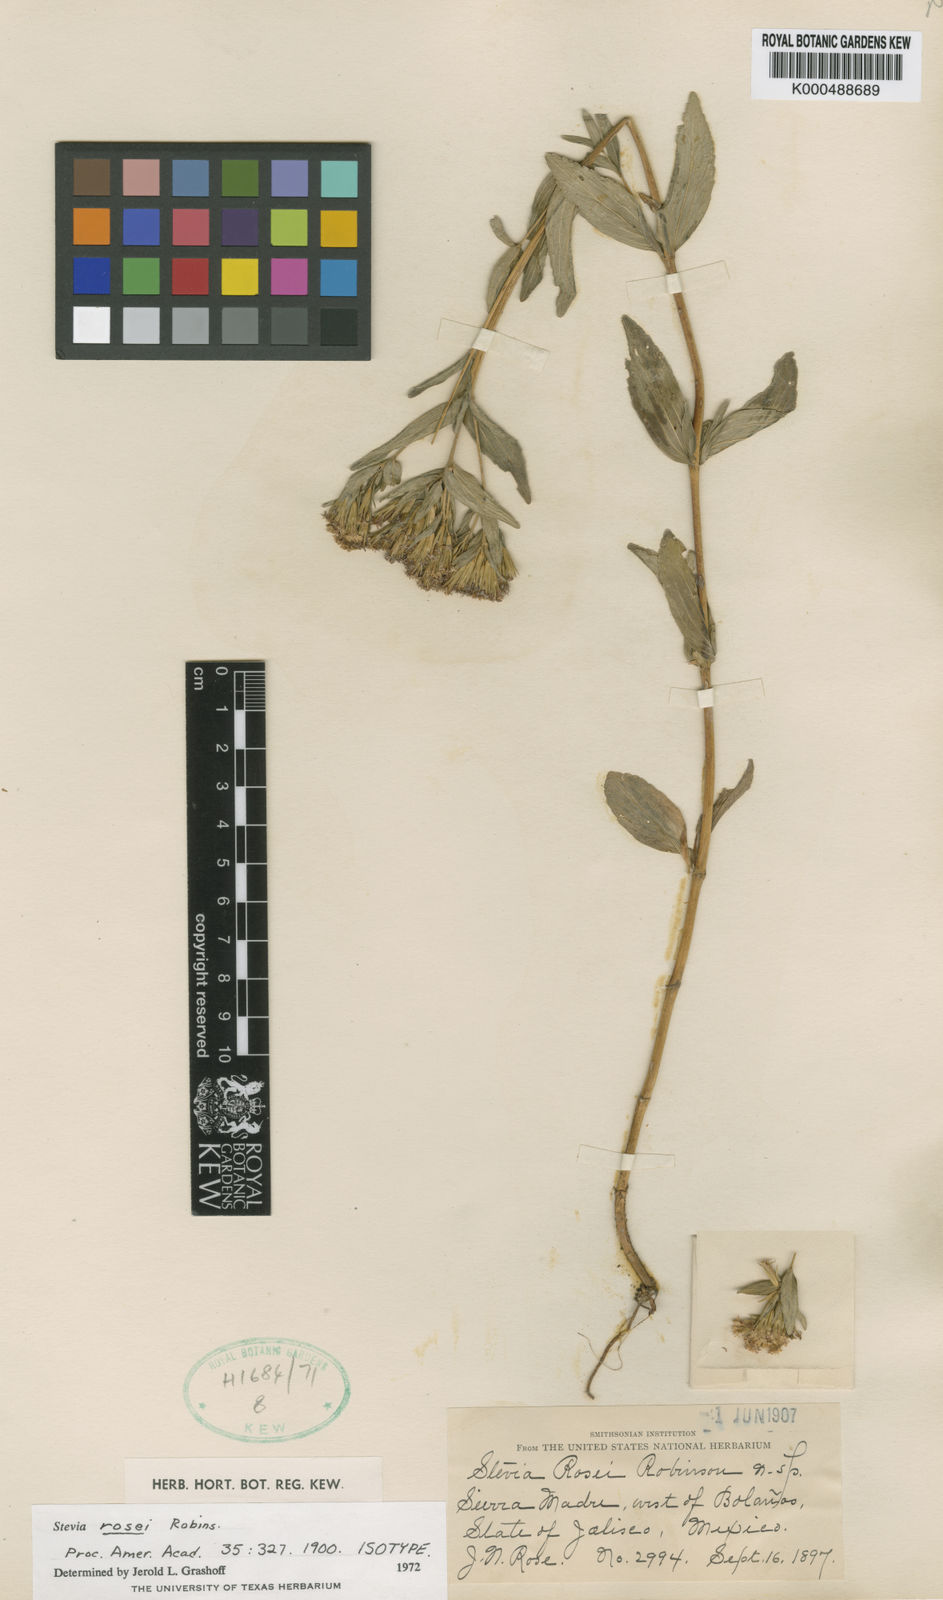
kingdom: Plantae
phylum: Tracheophyta
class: Magnoliopsida
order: Asterales
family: Asteraceae
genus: Stevia
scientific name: Stevia rosei
